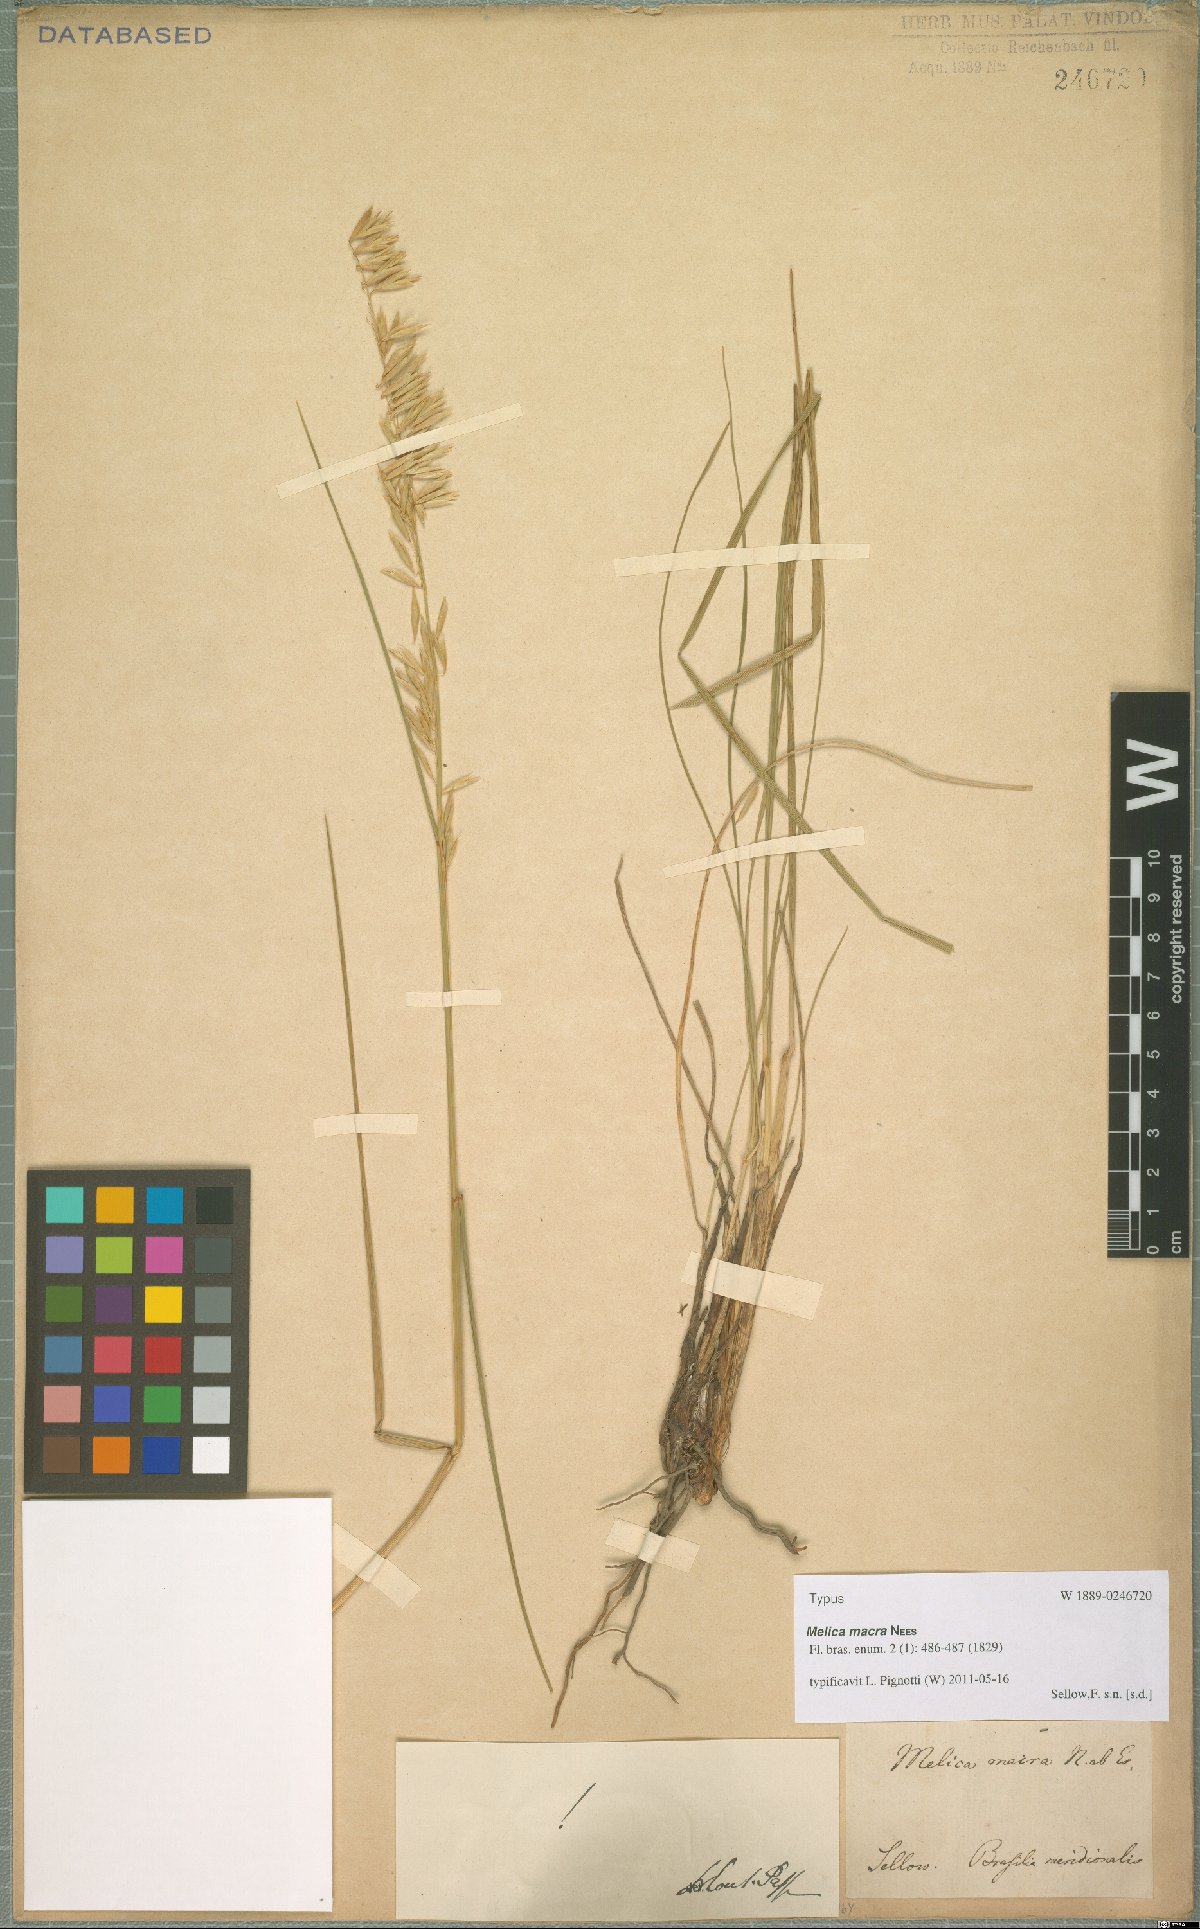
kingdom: Plantae
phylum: Tracheophyta
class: Liliopsida
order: Poales
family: Poaceae
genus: Melica
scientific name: Melica macra
